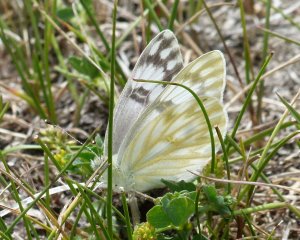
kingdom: Animalia
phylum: Arthropoda
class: Insecta
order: Lepidoptera
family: Pieridae
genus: Pontia
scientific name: Pontia protodice
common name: Checkered White
